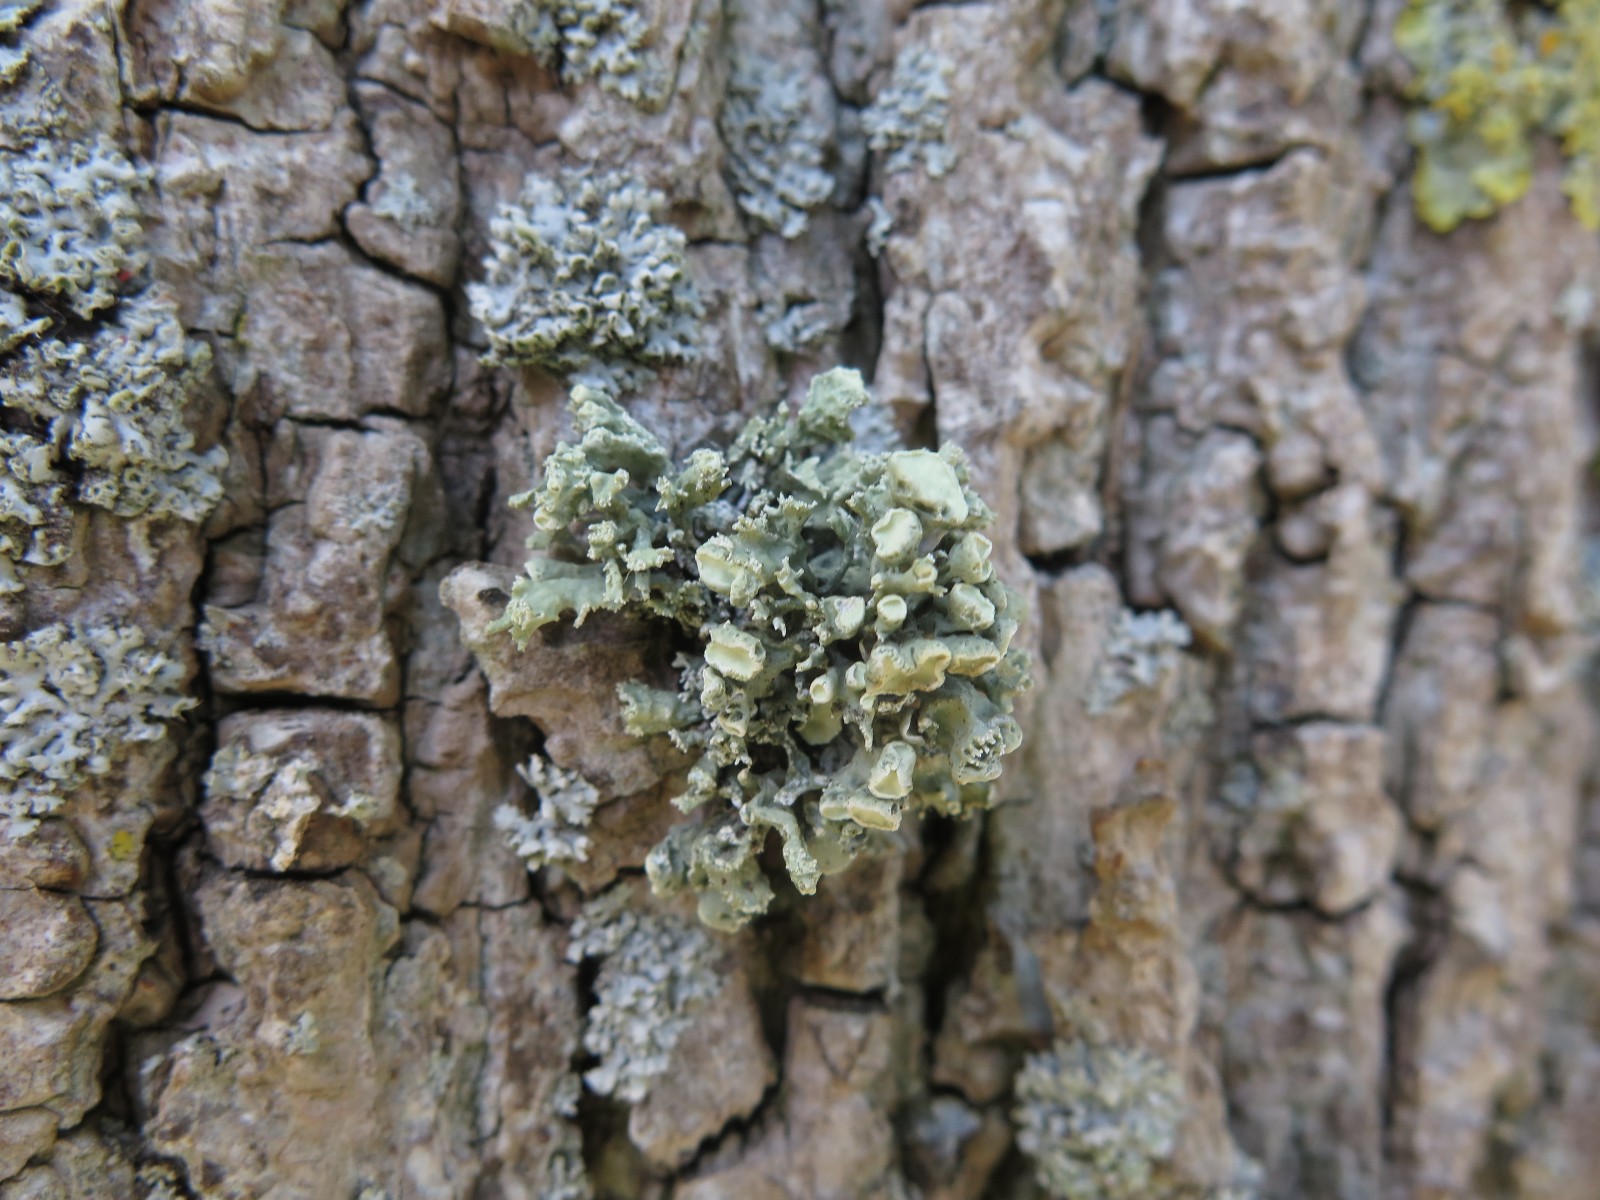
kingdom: Fungi
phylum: Ascomycota
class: Lecanoromycetes
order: Lecanorales
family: Ramalinaceae
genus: Ramalina
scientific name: Ramalina fastigiata
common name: tue-grenlav
